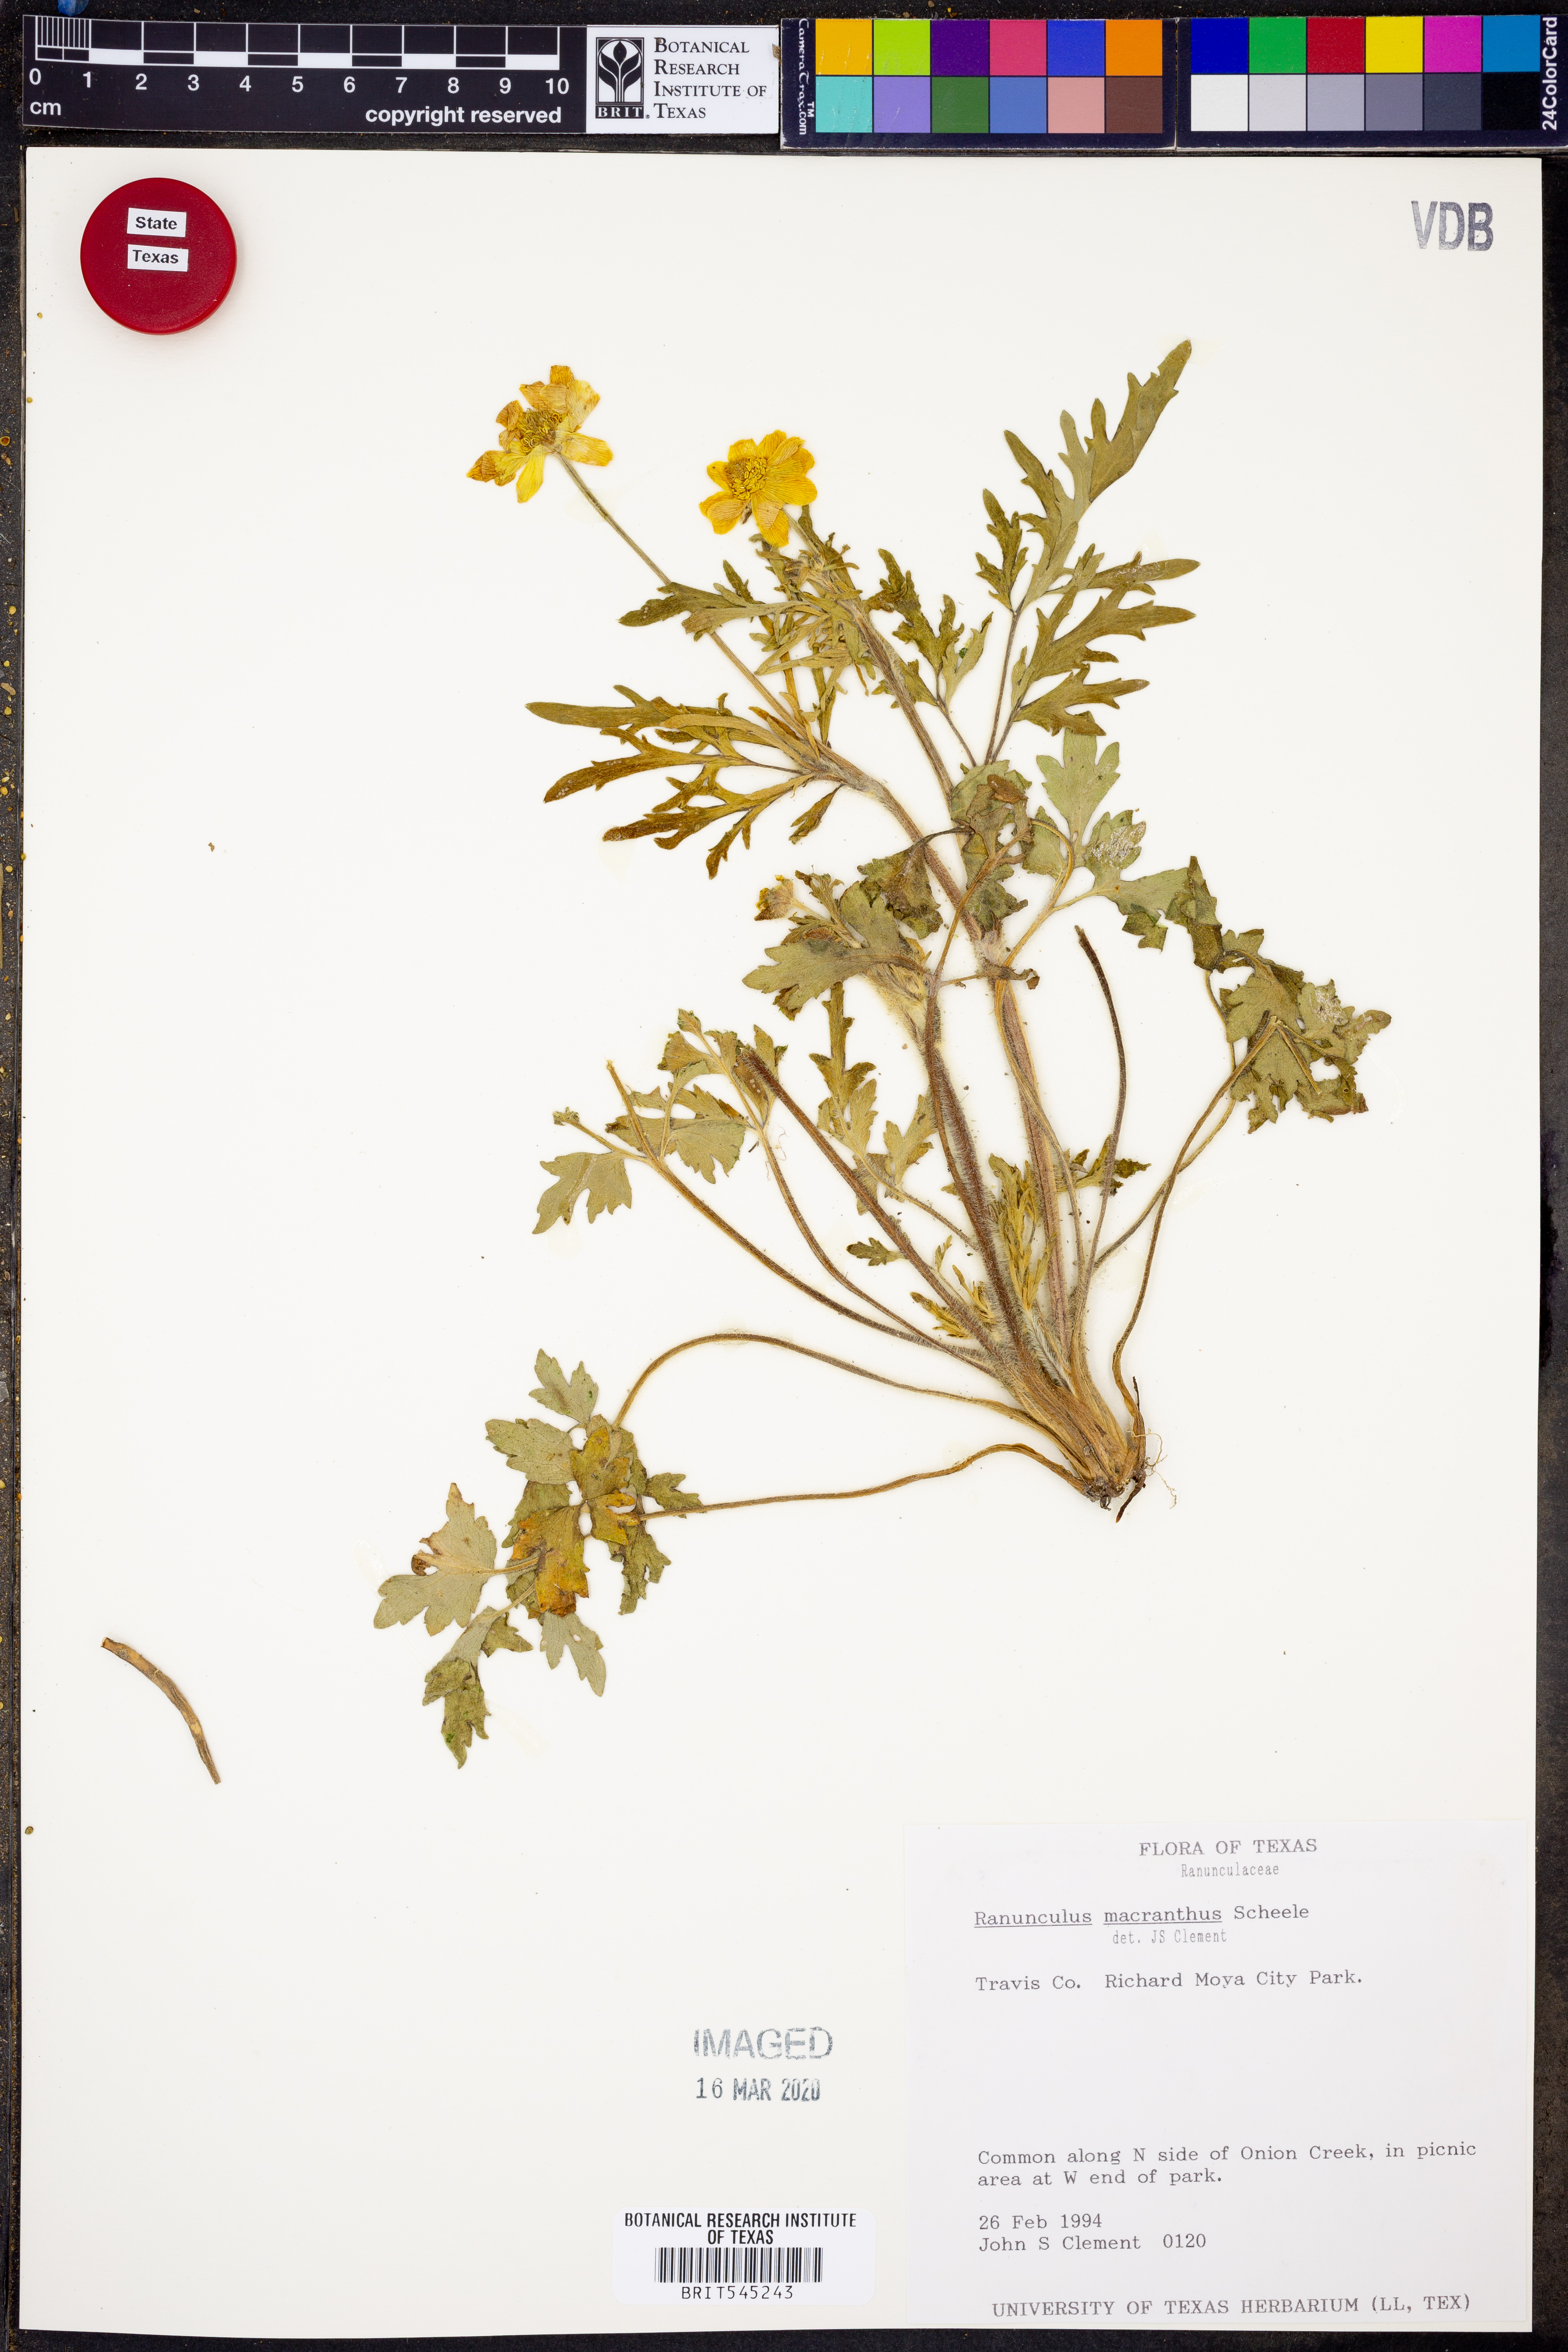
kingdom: Plantae
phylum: Tracheophyta
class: Magnoliopsida
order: Ranunculales
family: Ranunculaceae
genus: Ranunculus
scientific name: Ranunculus macranthus
